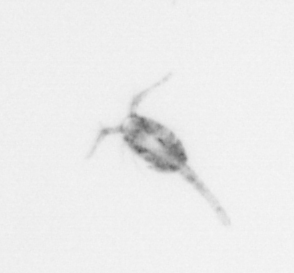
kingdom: Animalia
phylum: Arthropoda
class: Copepoda
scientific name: Copepoda
